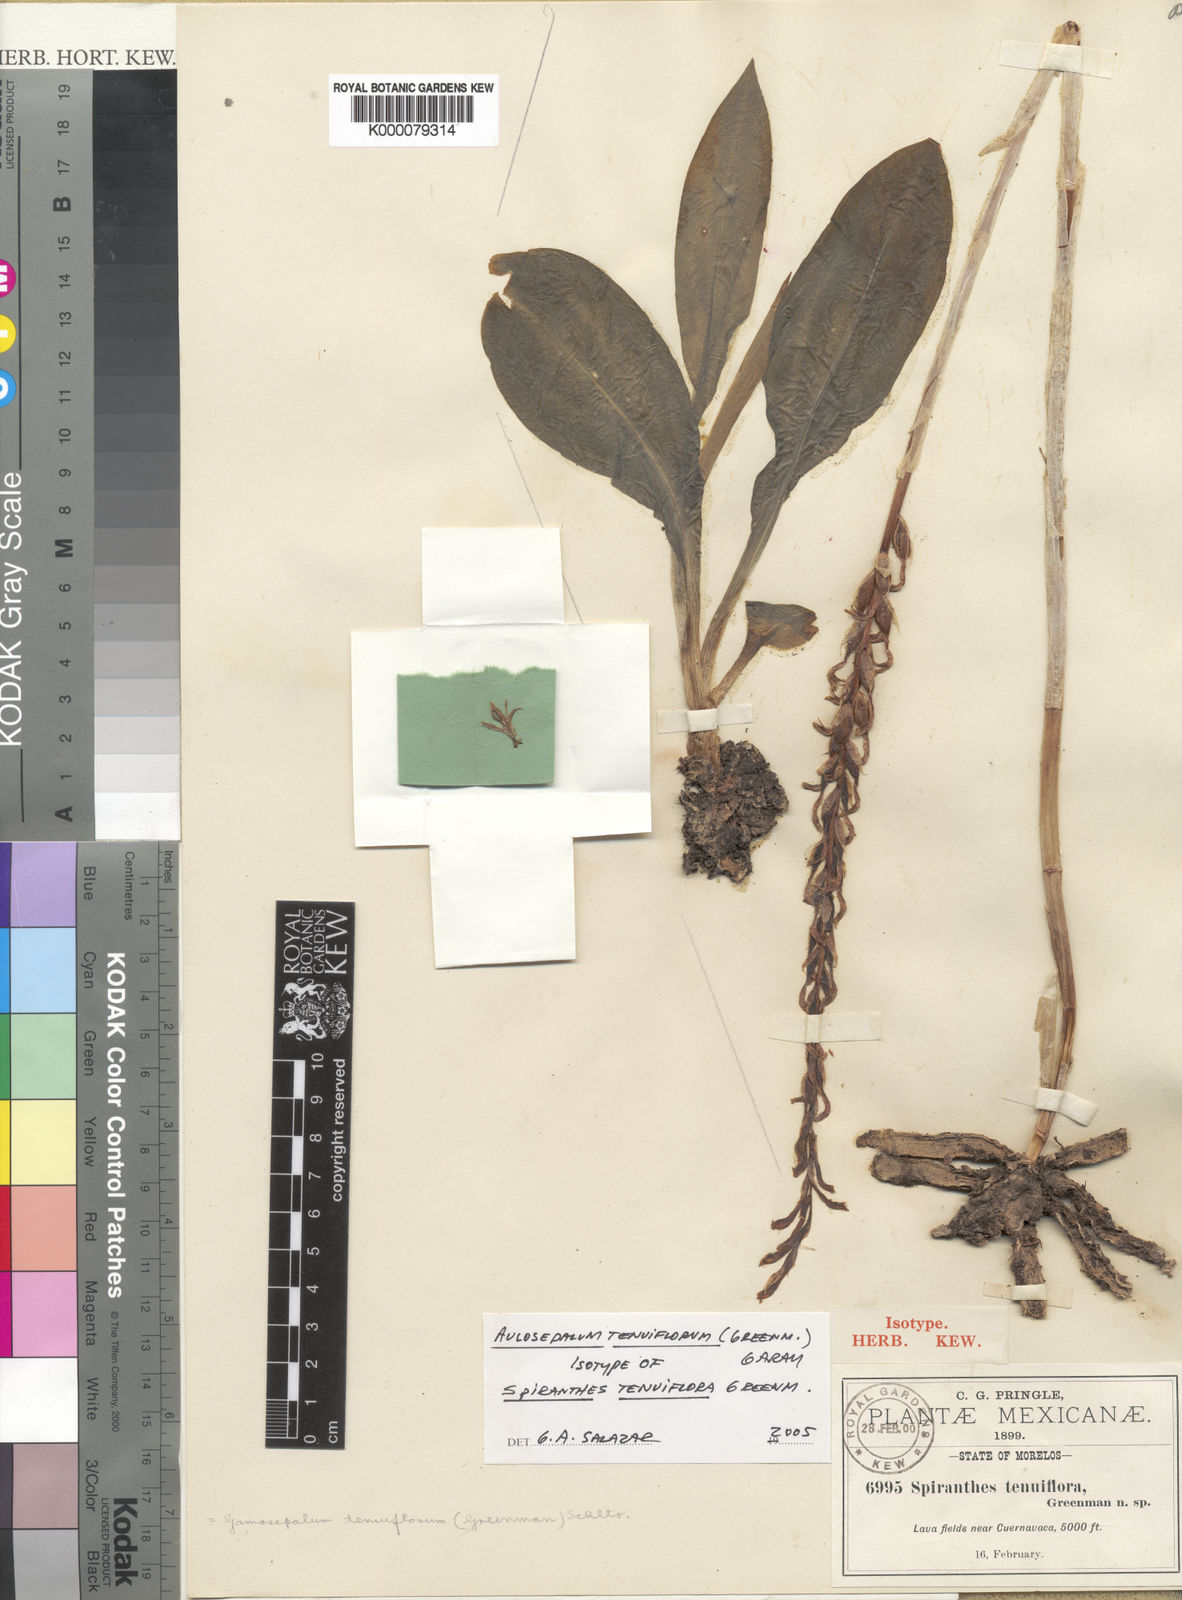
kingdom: Plantae
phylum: Tracheophyta
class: Liliopsida
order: Asparagales
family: Orchidaceae
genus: Aulosepalum
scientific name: Aulosepalum tenuiflorum
